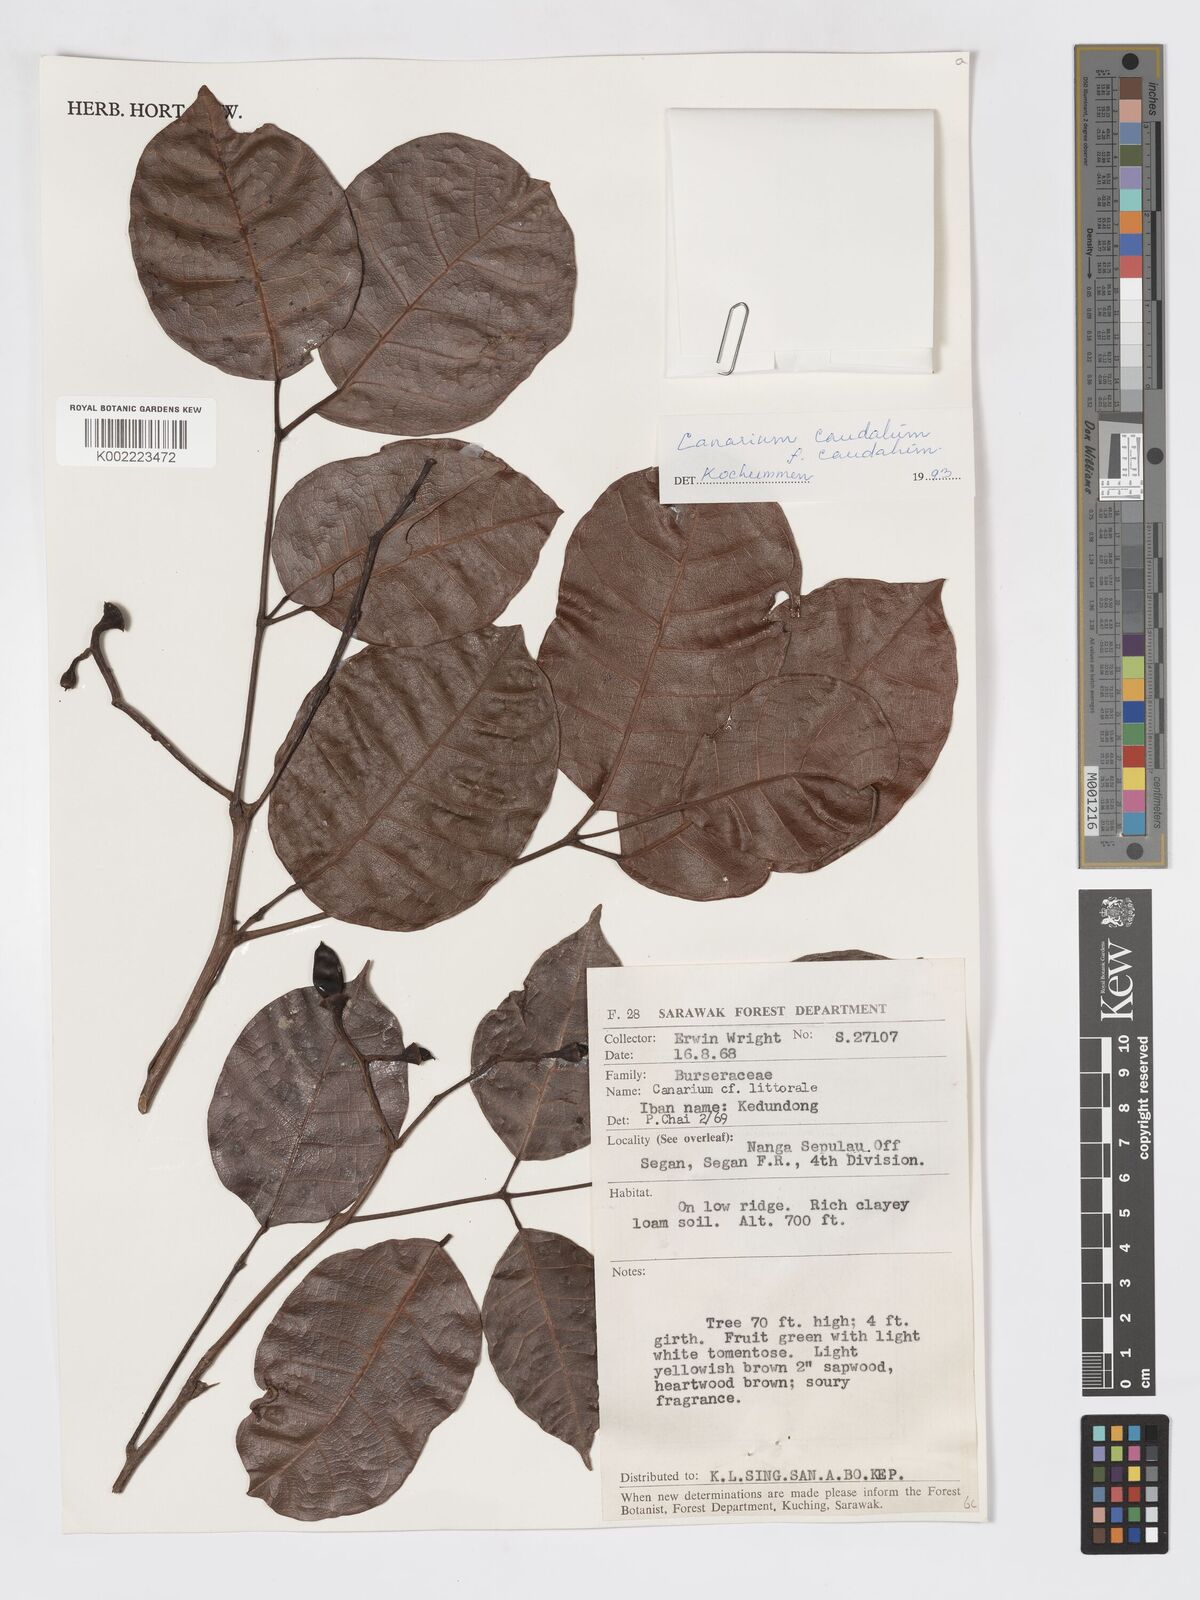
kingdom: Plantae
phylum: Tracheophyta
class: Magnoliopsida
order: Sapindales
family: Burseraceae
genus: Canarium
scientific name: Canarium caudatum
